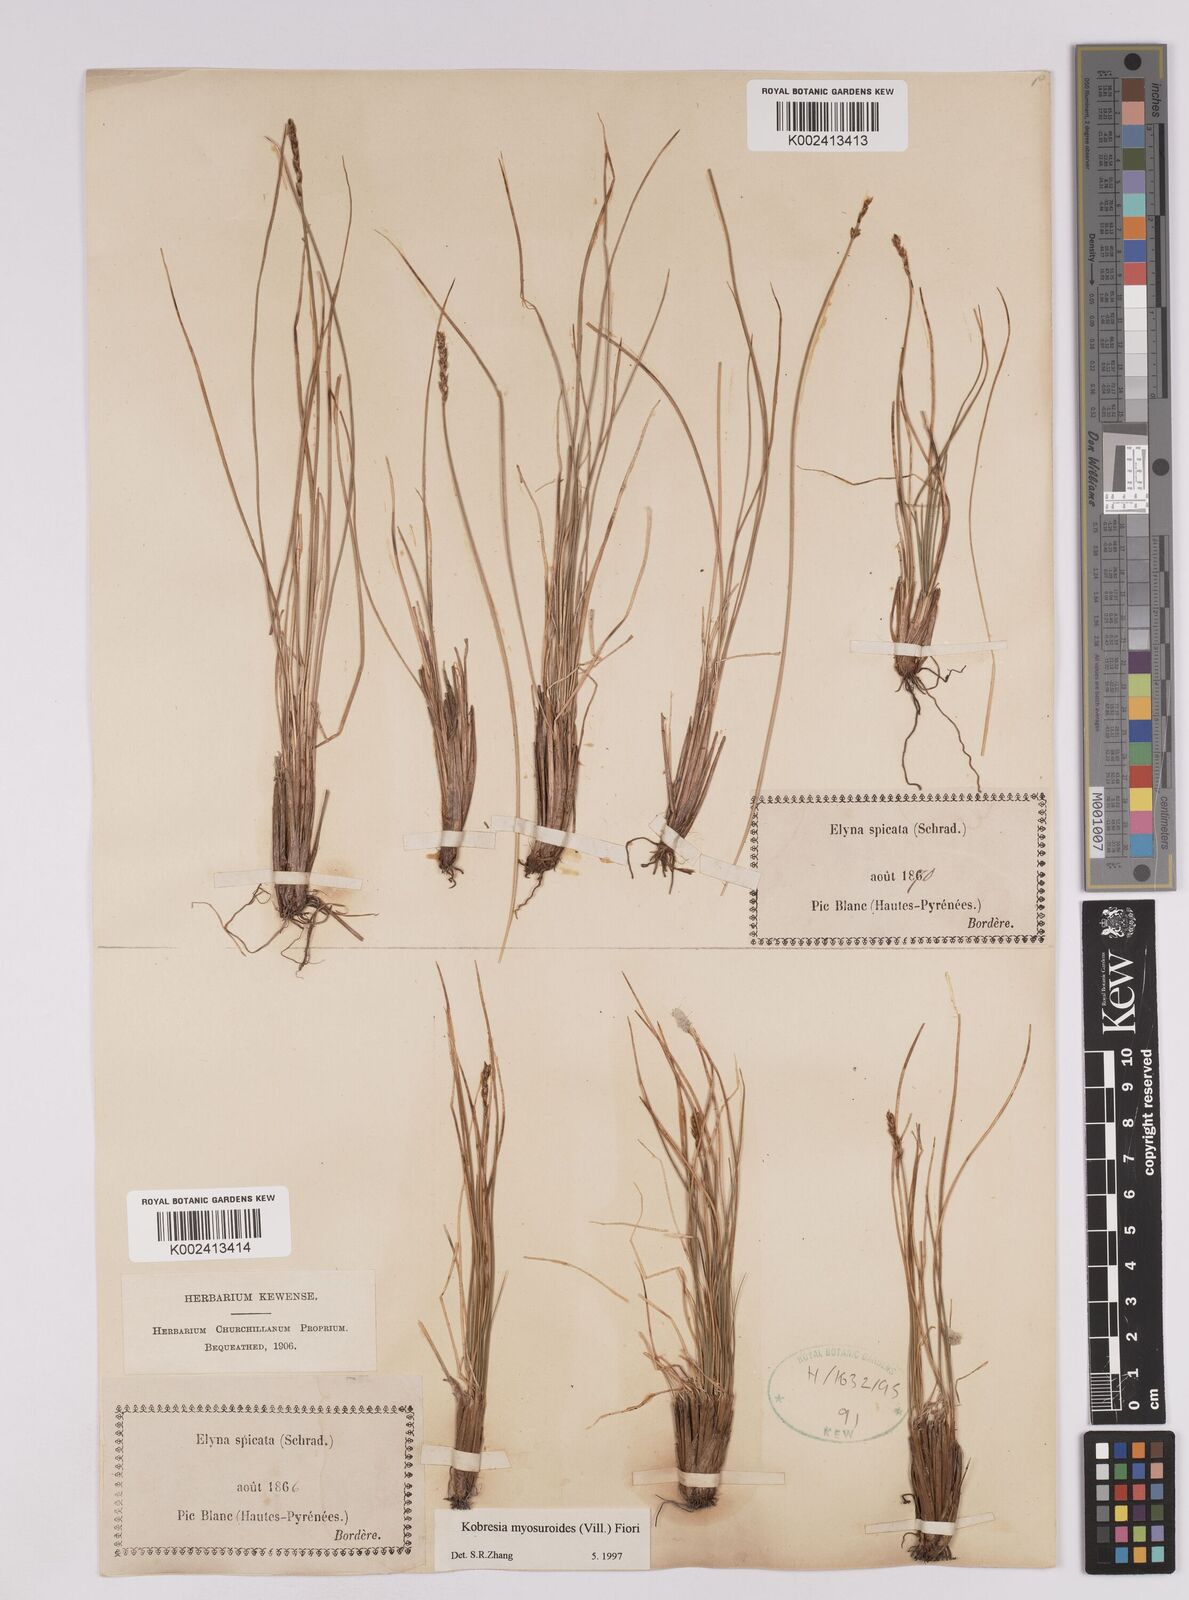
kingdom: Plantae
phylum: Tracheophyta
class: Liliopsida
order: Poales
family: Cyperaceae
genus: Carex
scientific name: Carex myosuroides
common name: Bellard's bog sedge
